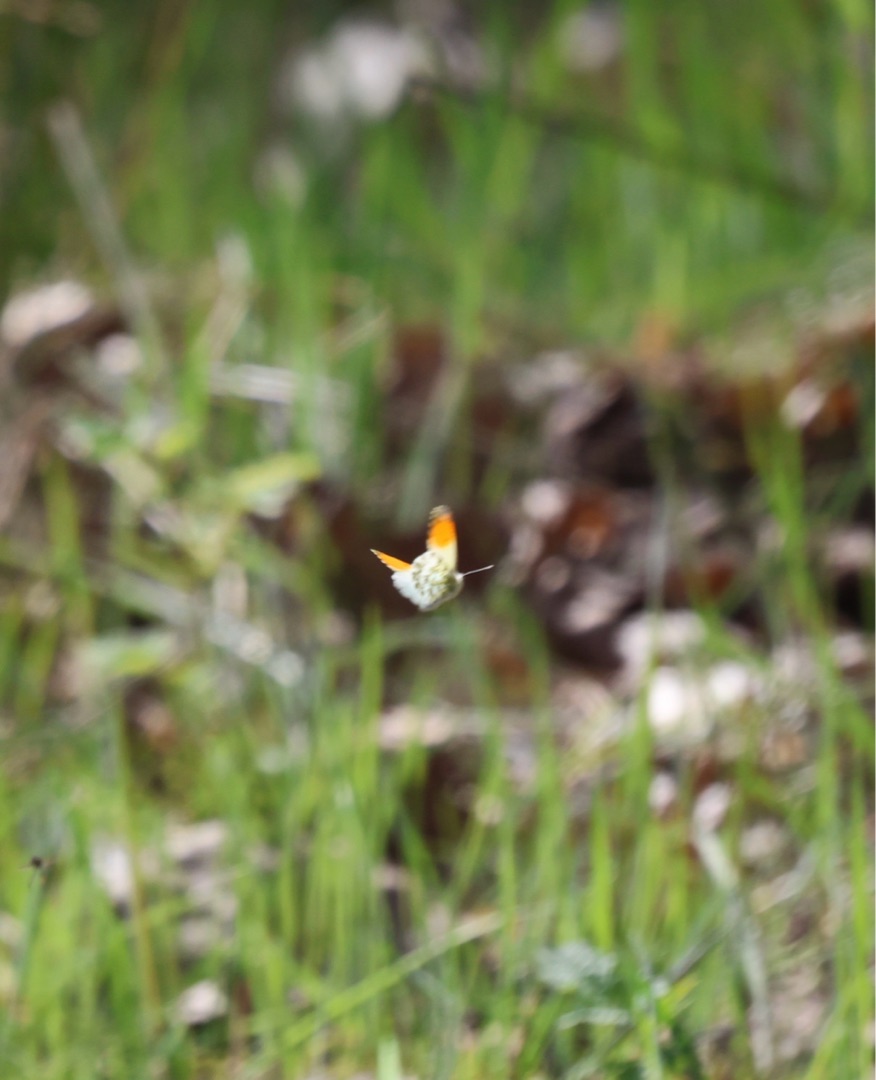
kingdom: Animalia
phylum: Arthropoda
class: Insecta
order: Lepidoptera
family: Pieridae
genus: Anthocharis
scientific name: Anthocharis cardamines
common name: Aurora
